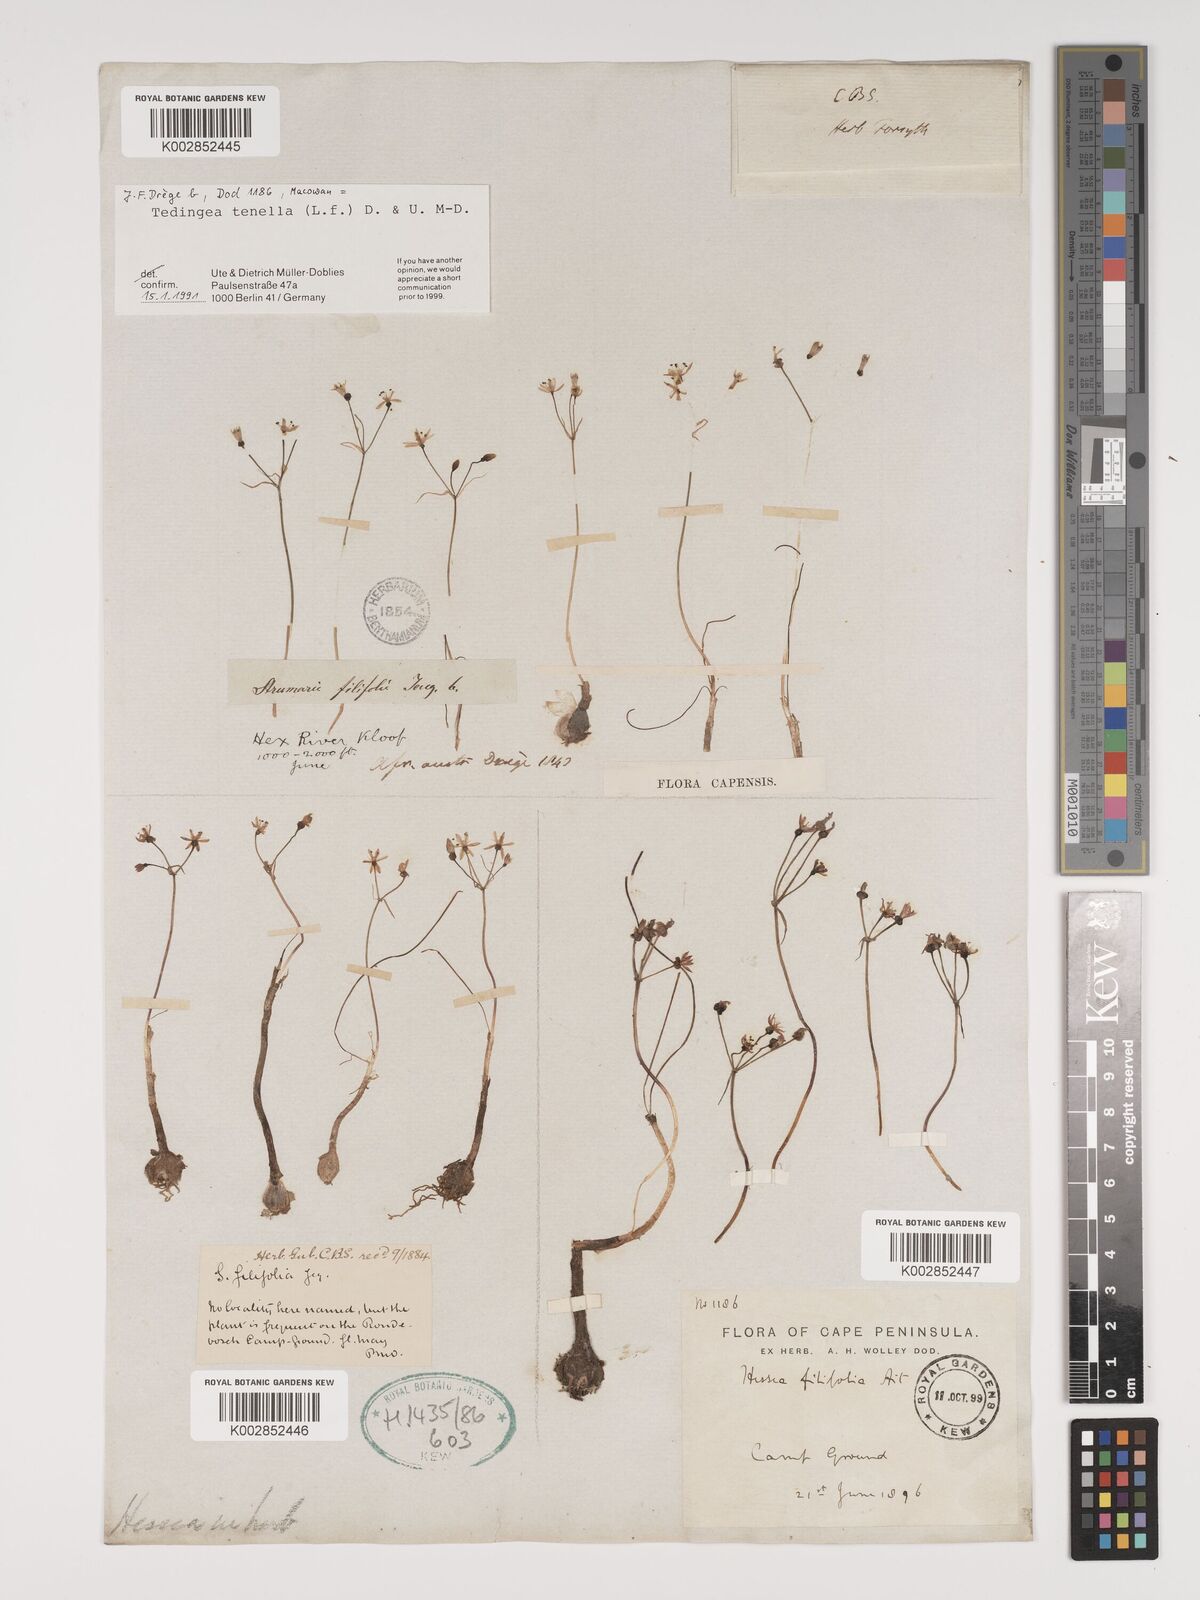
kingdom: Plantae
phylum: Tracheophyta
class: Liliopsida
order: Asparagales
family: Amaryllidaceae
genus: Strumaria
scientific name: Strumaria tenella
